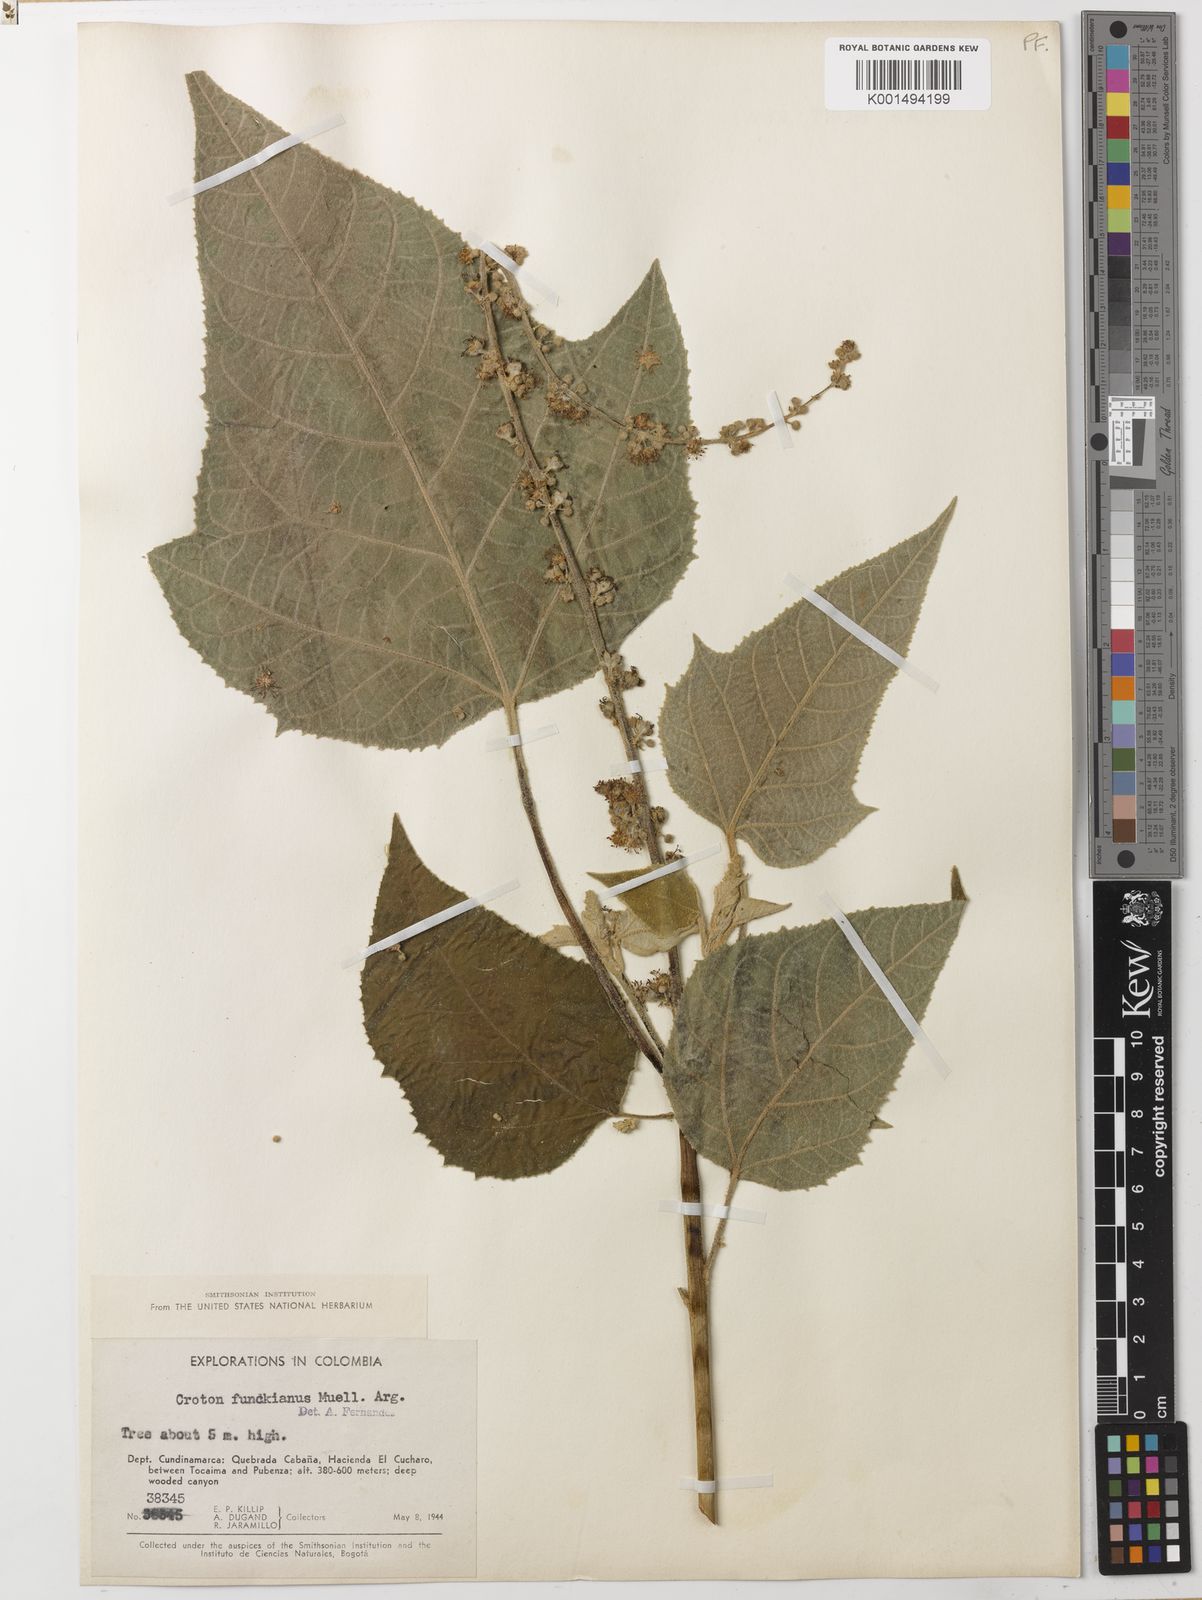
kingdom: Plantae
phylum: Tracheophyta
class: Magnoliopsida
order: Malpighiales
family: Euphorbiaceae
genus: Croton
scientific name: Croton hibiscifolius
